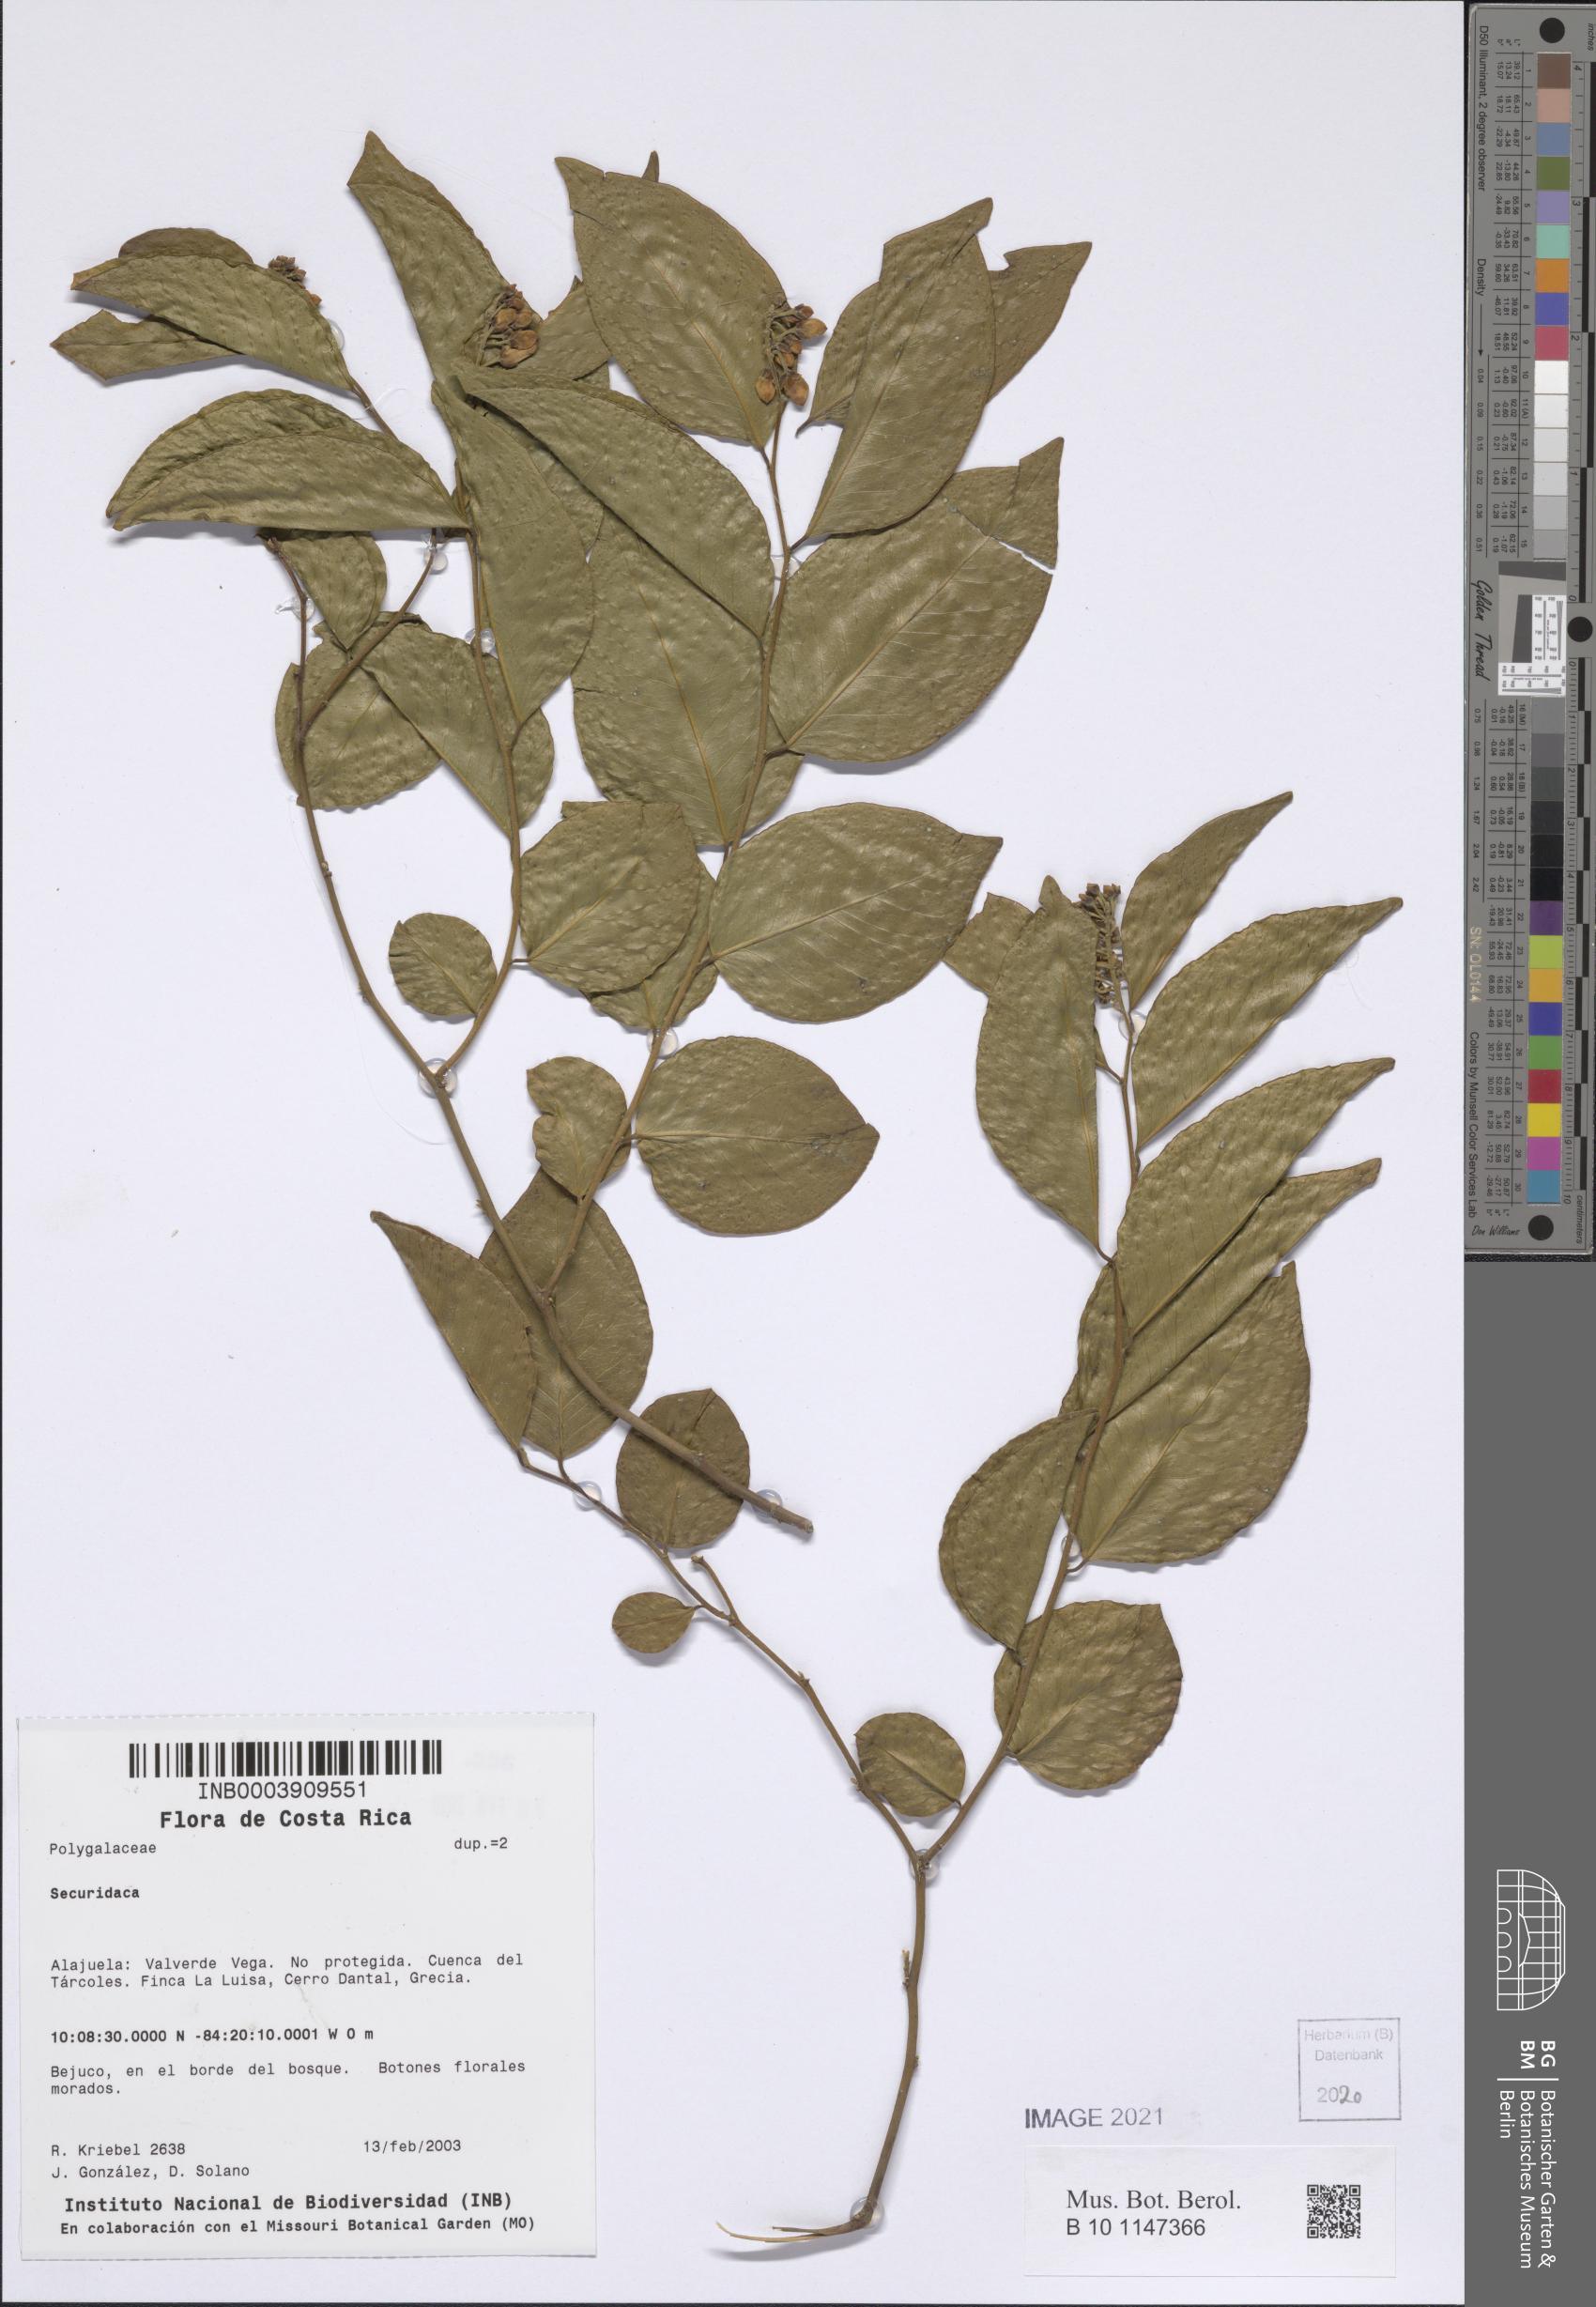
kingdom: Plantae
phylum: Tracheophyta
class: Magnoliopsida
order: Fabales
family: Polygalaceae
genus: Securidaca
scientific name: Securidaca
